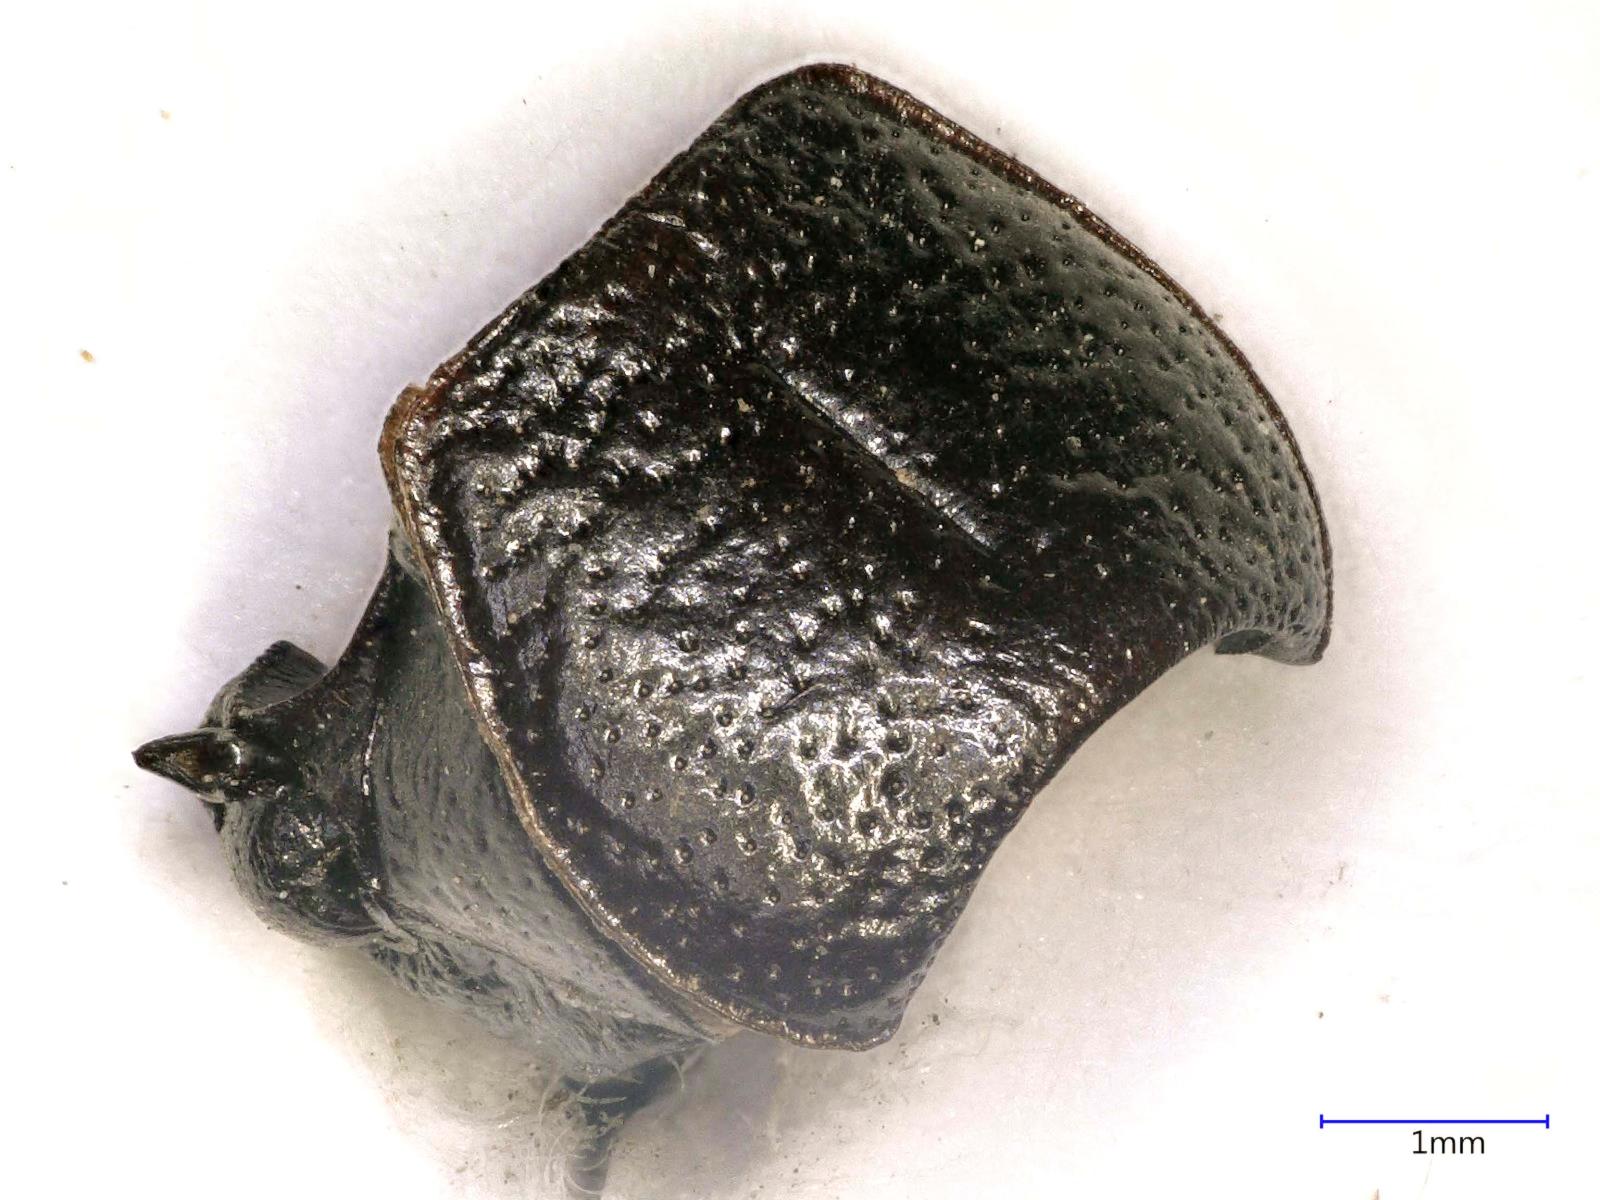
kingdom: Animalia
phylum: Arthropoda
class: Insecta
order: Coleoptera
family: Carabidae
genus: Dicheirus
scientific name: Dicheirus dilatatus
